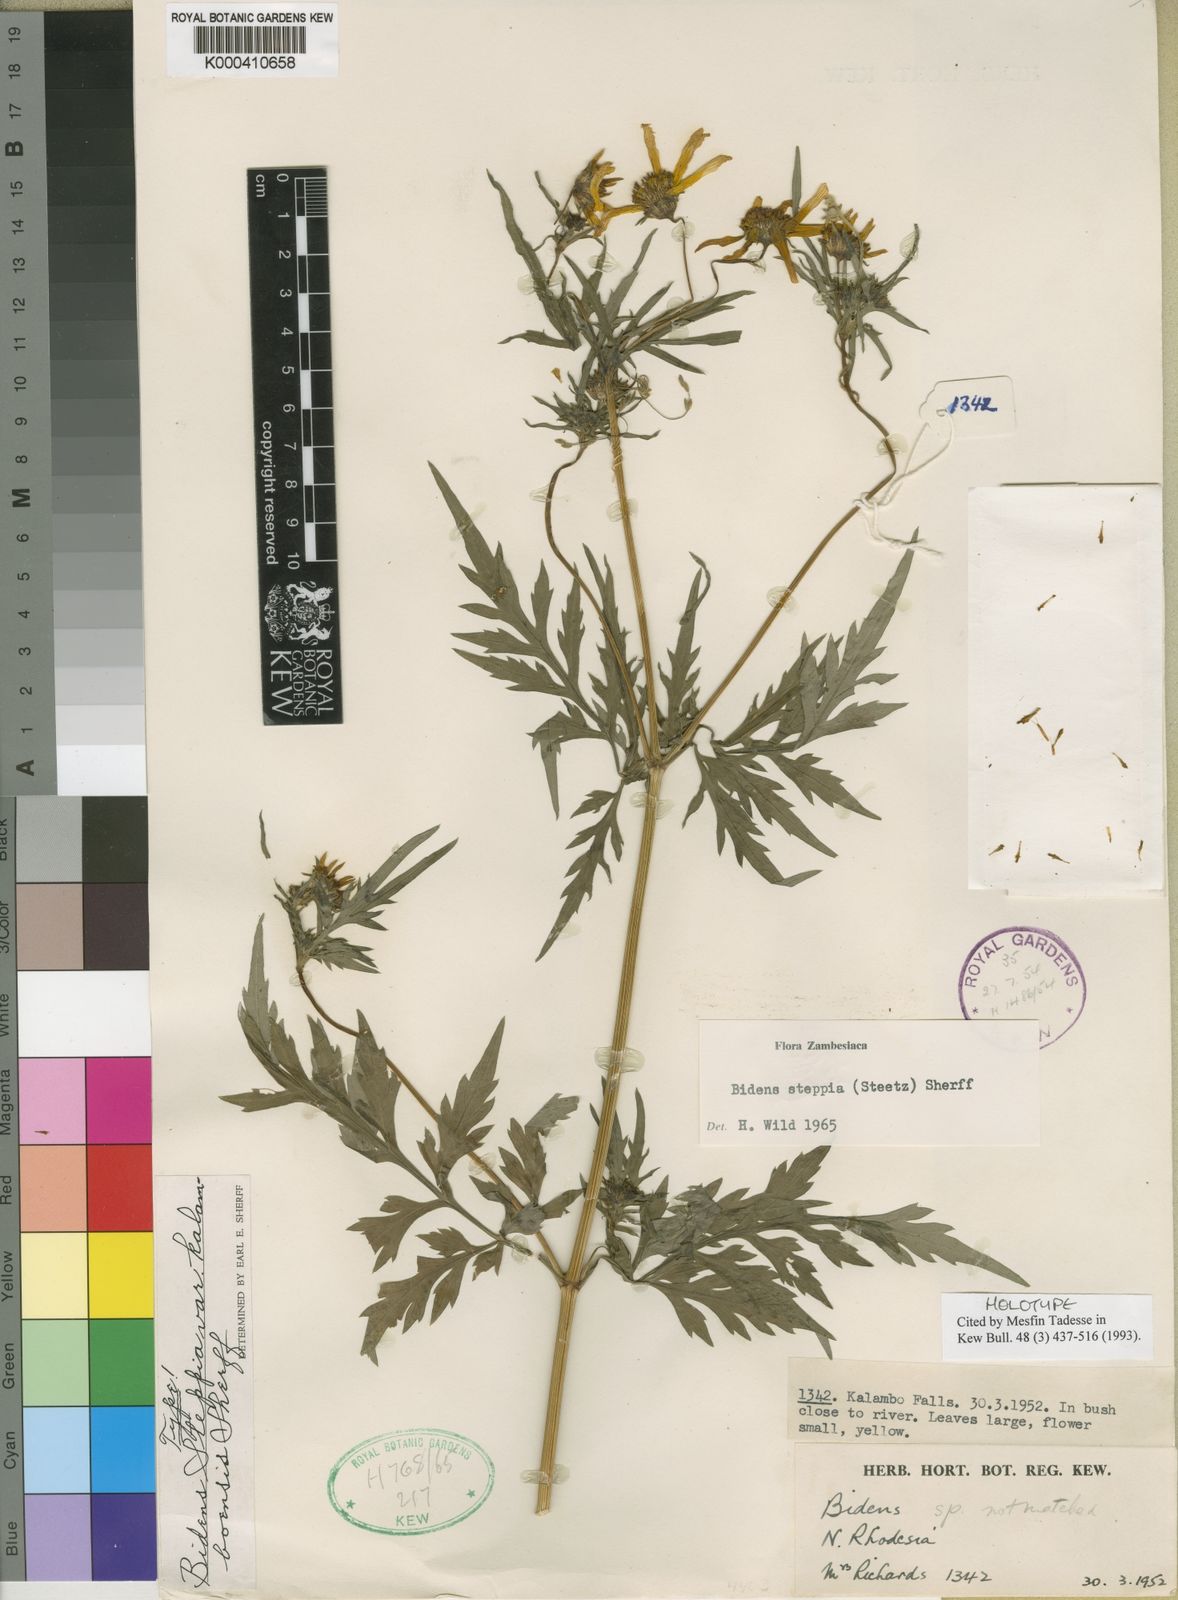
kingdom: Plantae
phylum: Tracheophyta
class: Magnoliopsida
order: Asterales
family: Asteraceae
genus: Bidens
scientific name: Bidens steppia
